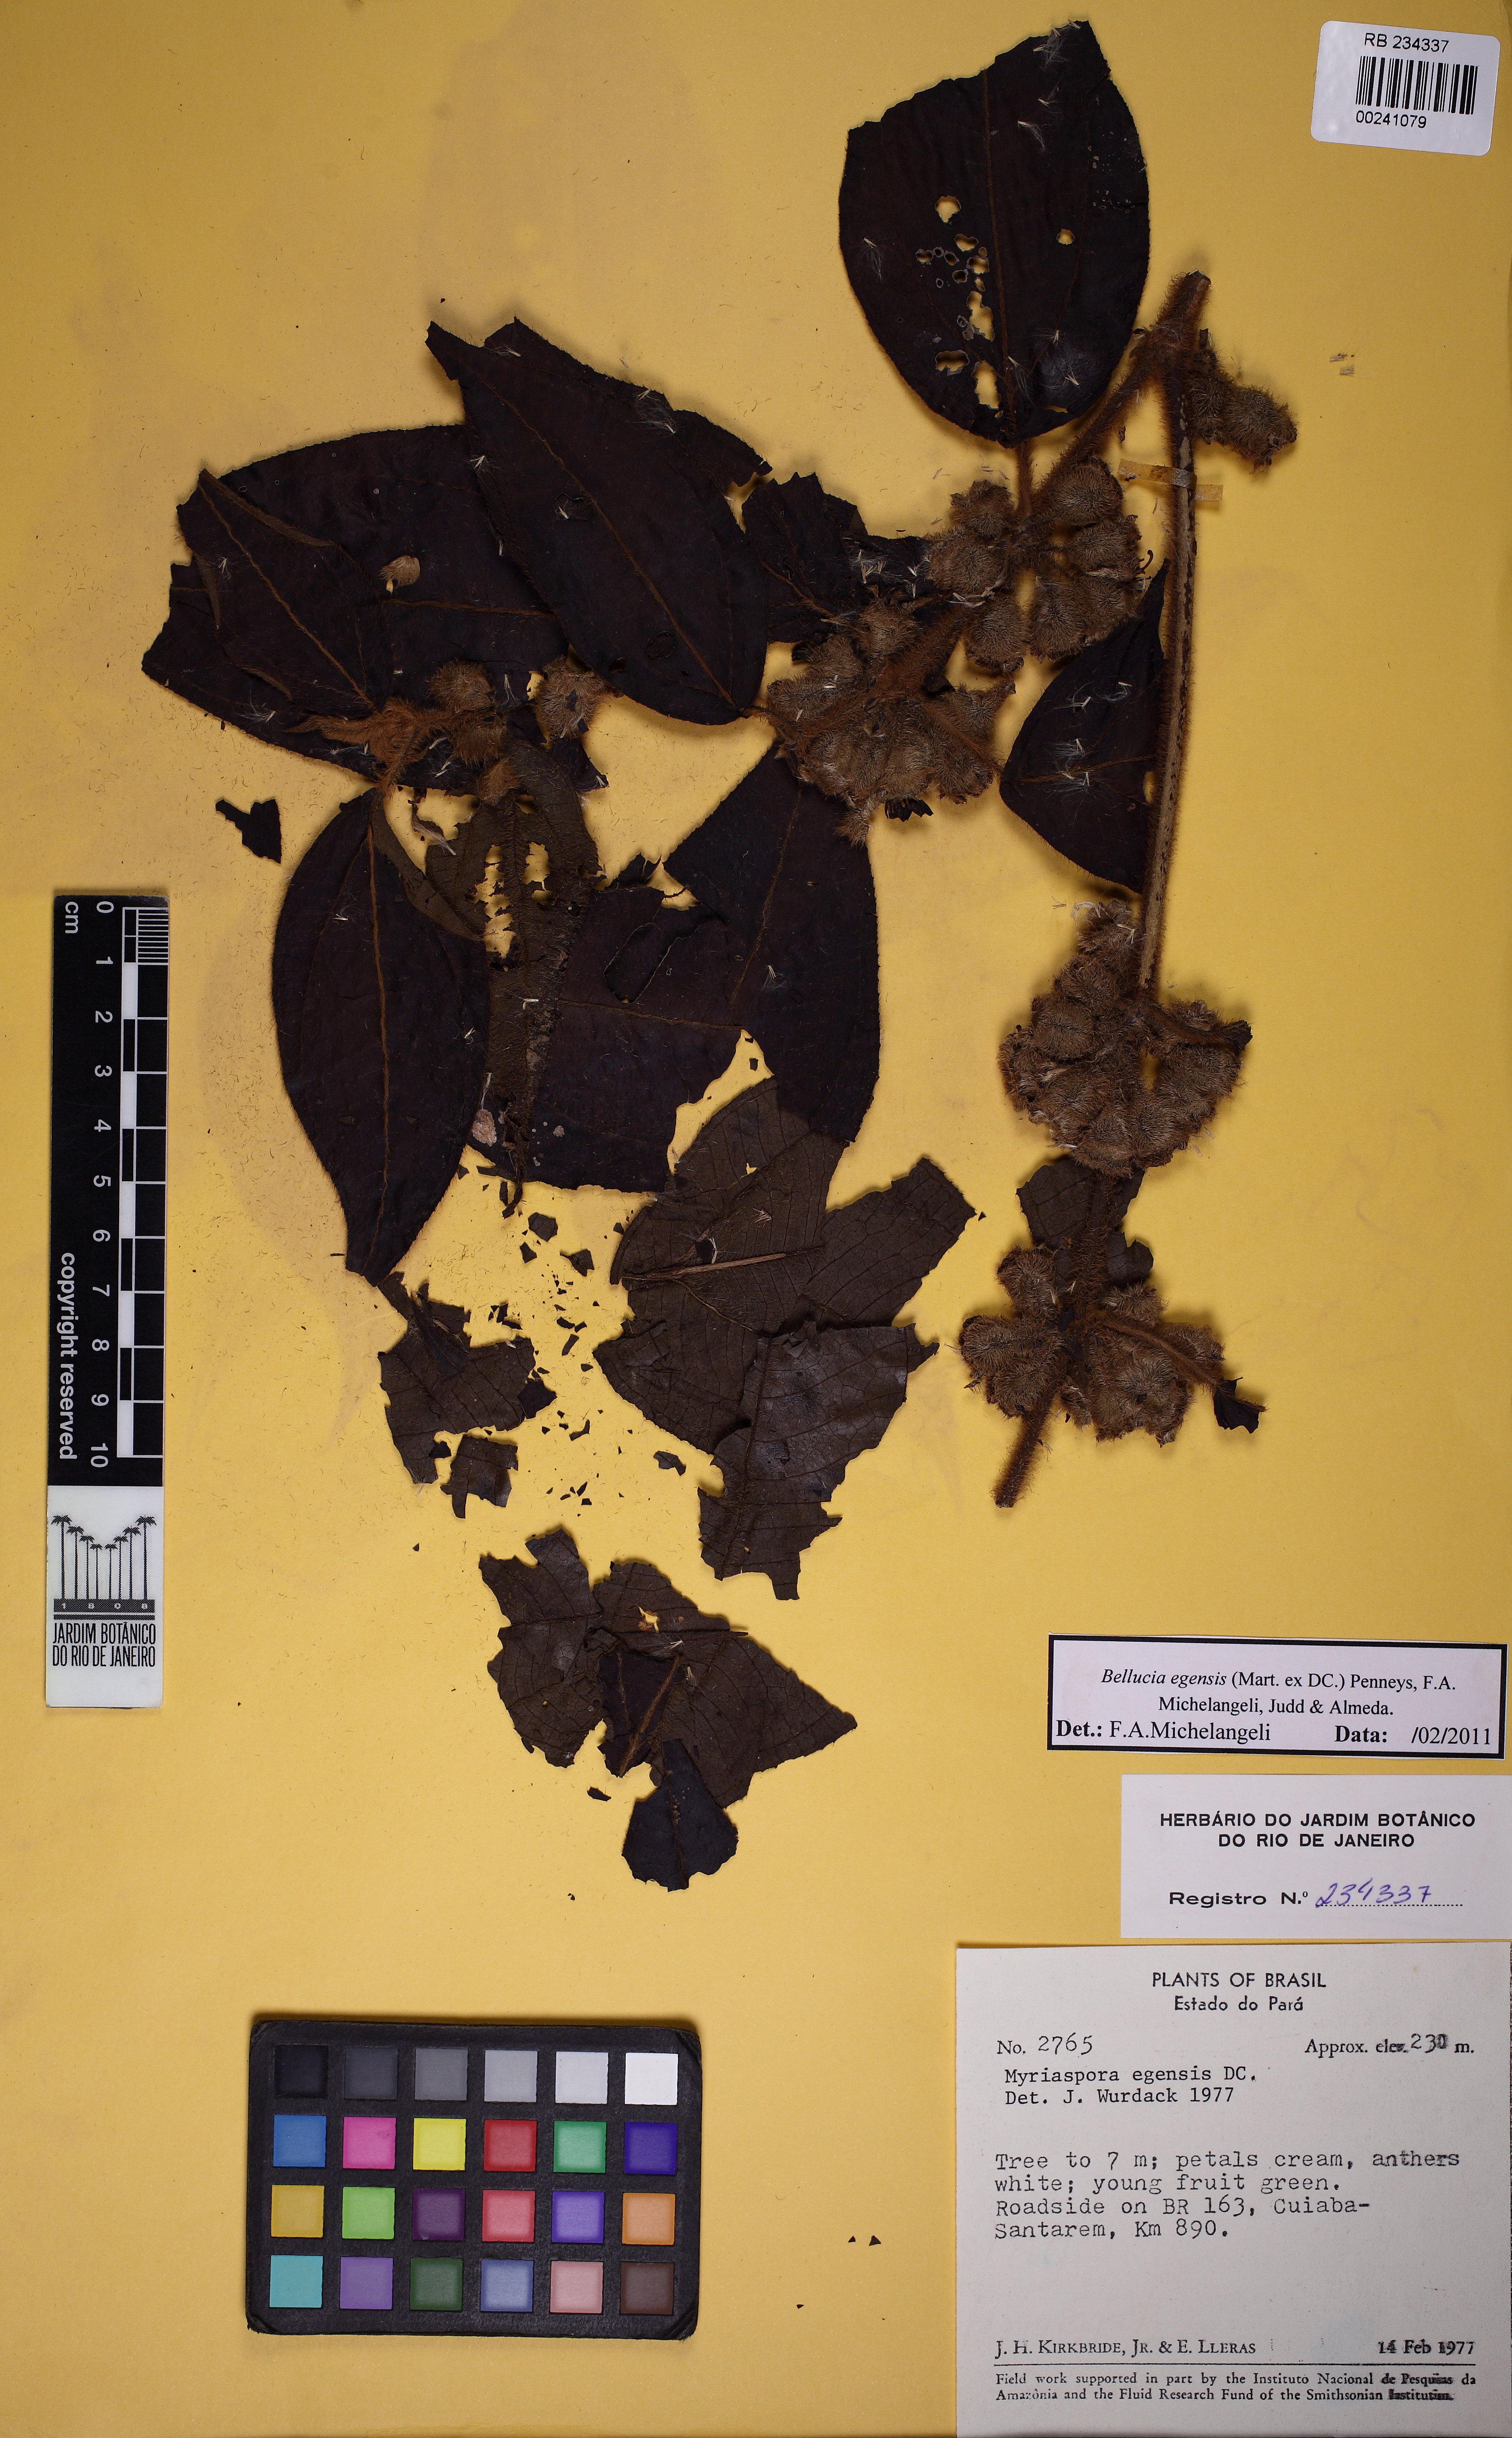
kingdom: Plantae
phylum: Tracheophyta
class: Magnoliopsida
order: Myrtales
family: Melastomataceae
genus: Bellucia
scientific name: Bellucia egensis
